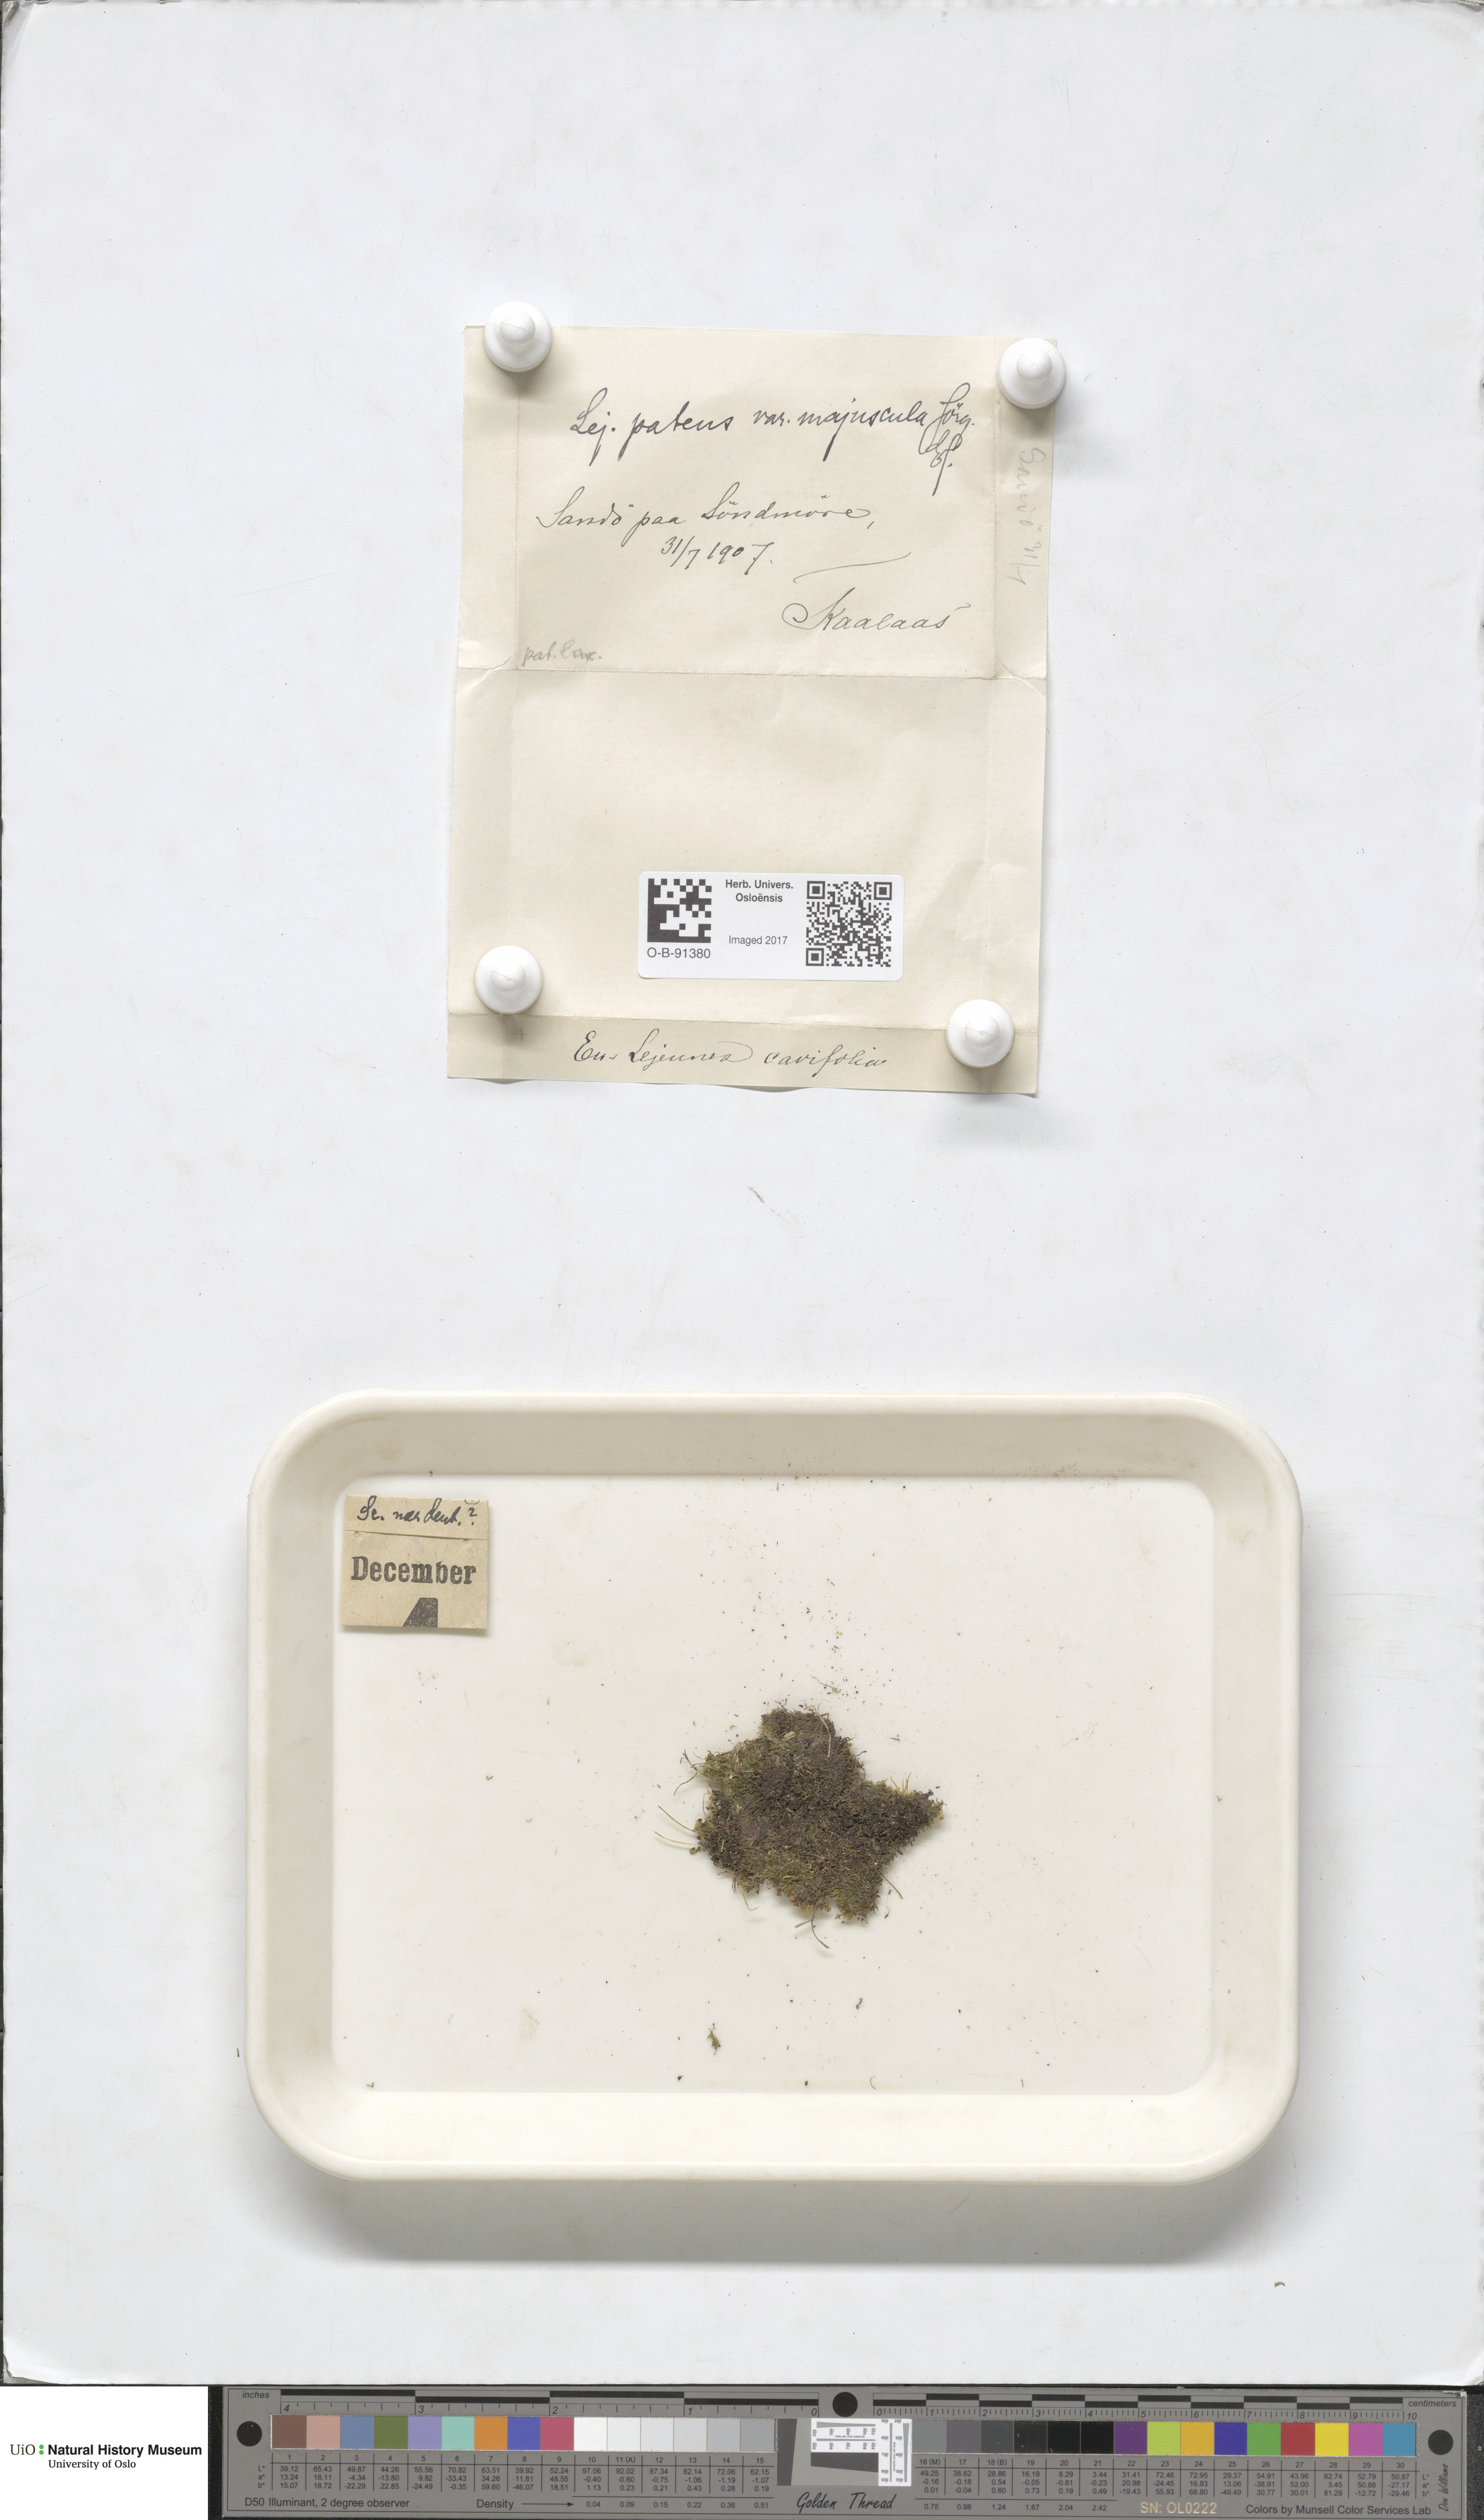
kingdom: Plantae
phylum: Marchantiophyta
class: Jungermanniopsida
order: Porellales
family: Lejeuneaceae
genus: Lejeunea
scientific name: Lejeunea patens
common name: Pearl pouncewort
